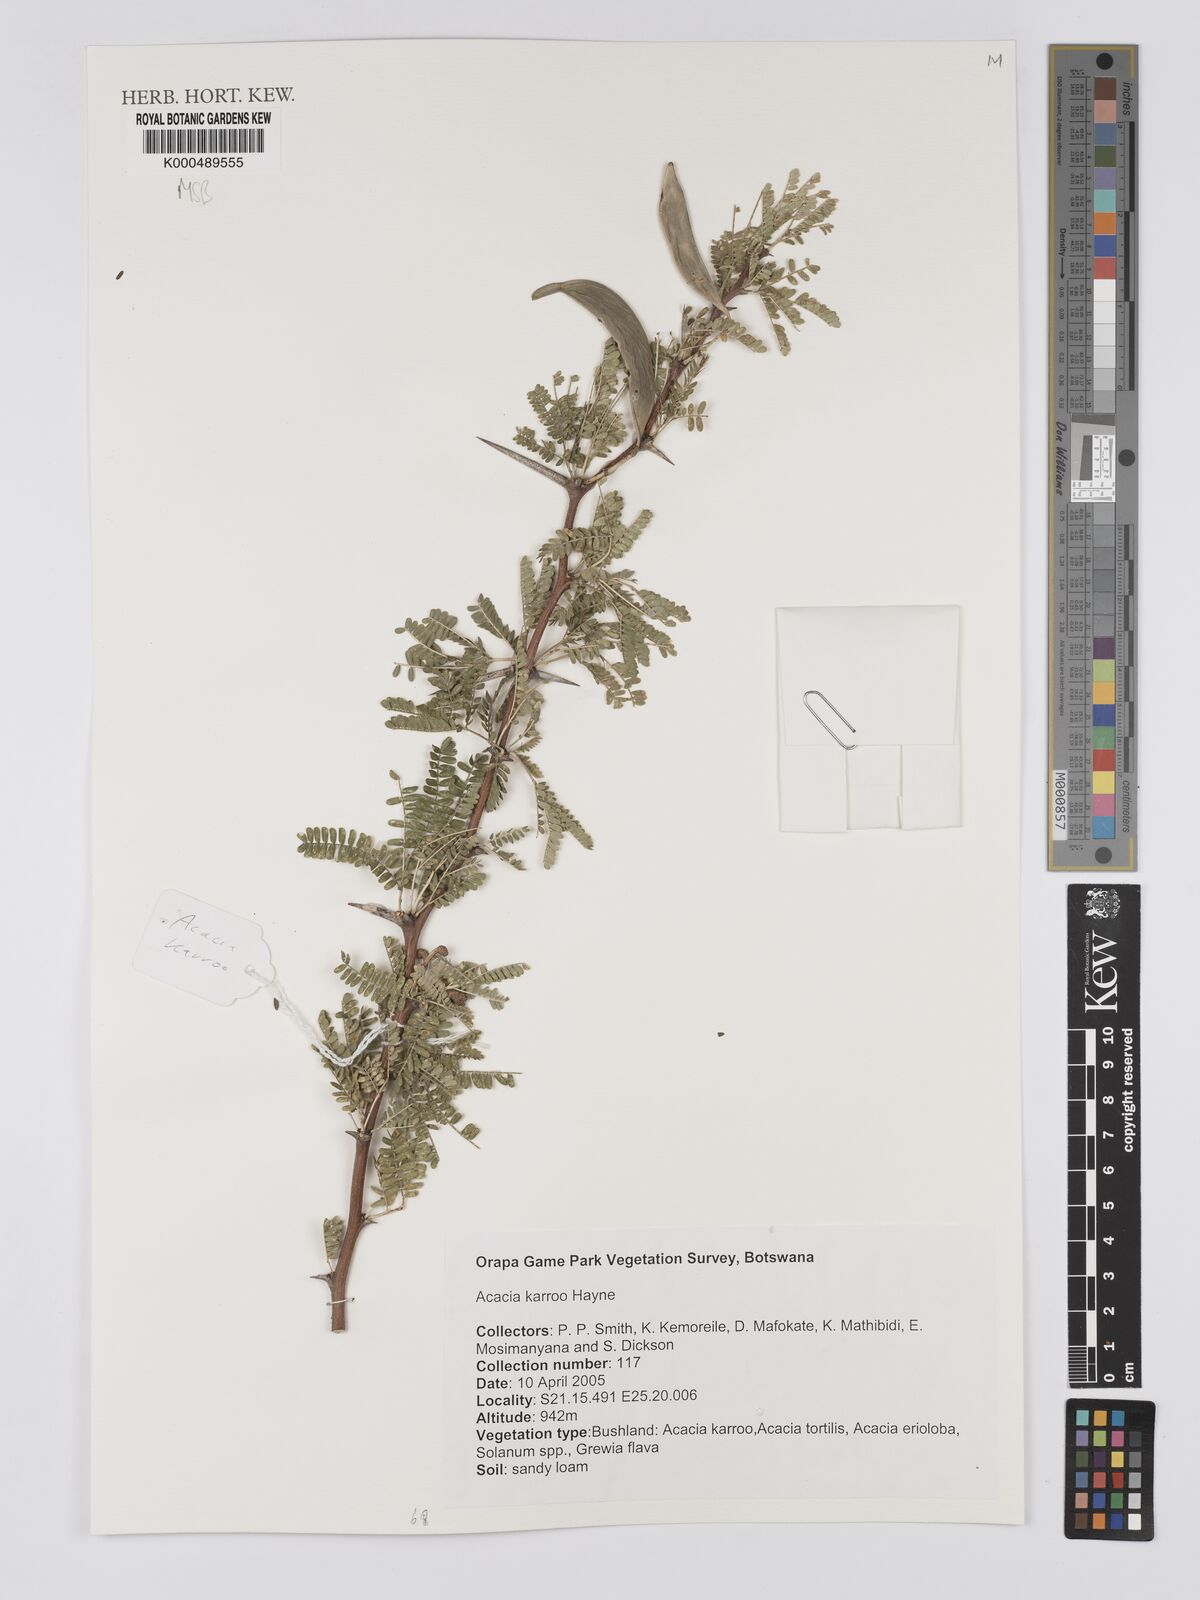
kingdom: Plantae
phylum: Tracheophyta
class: Magnoliopsida
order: Fabales
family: Fabaceae
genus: Vachellia
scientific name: Vachellia karroo
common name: Sweet thorn
